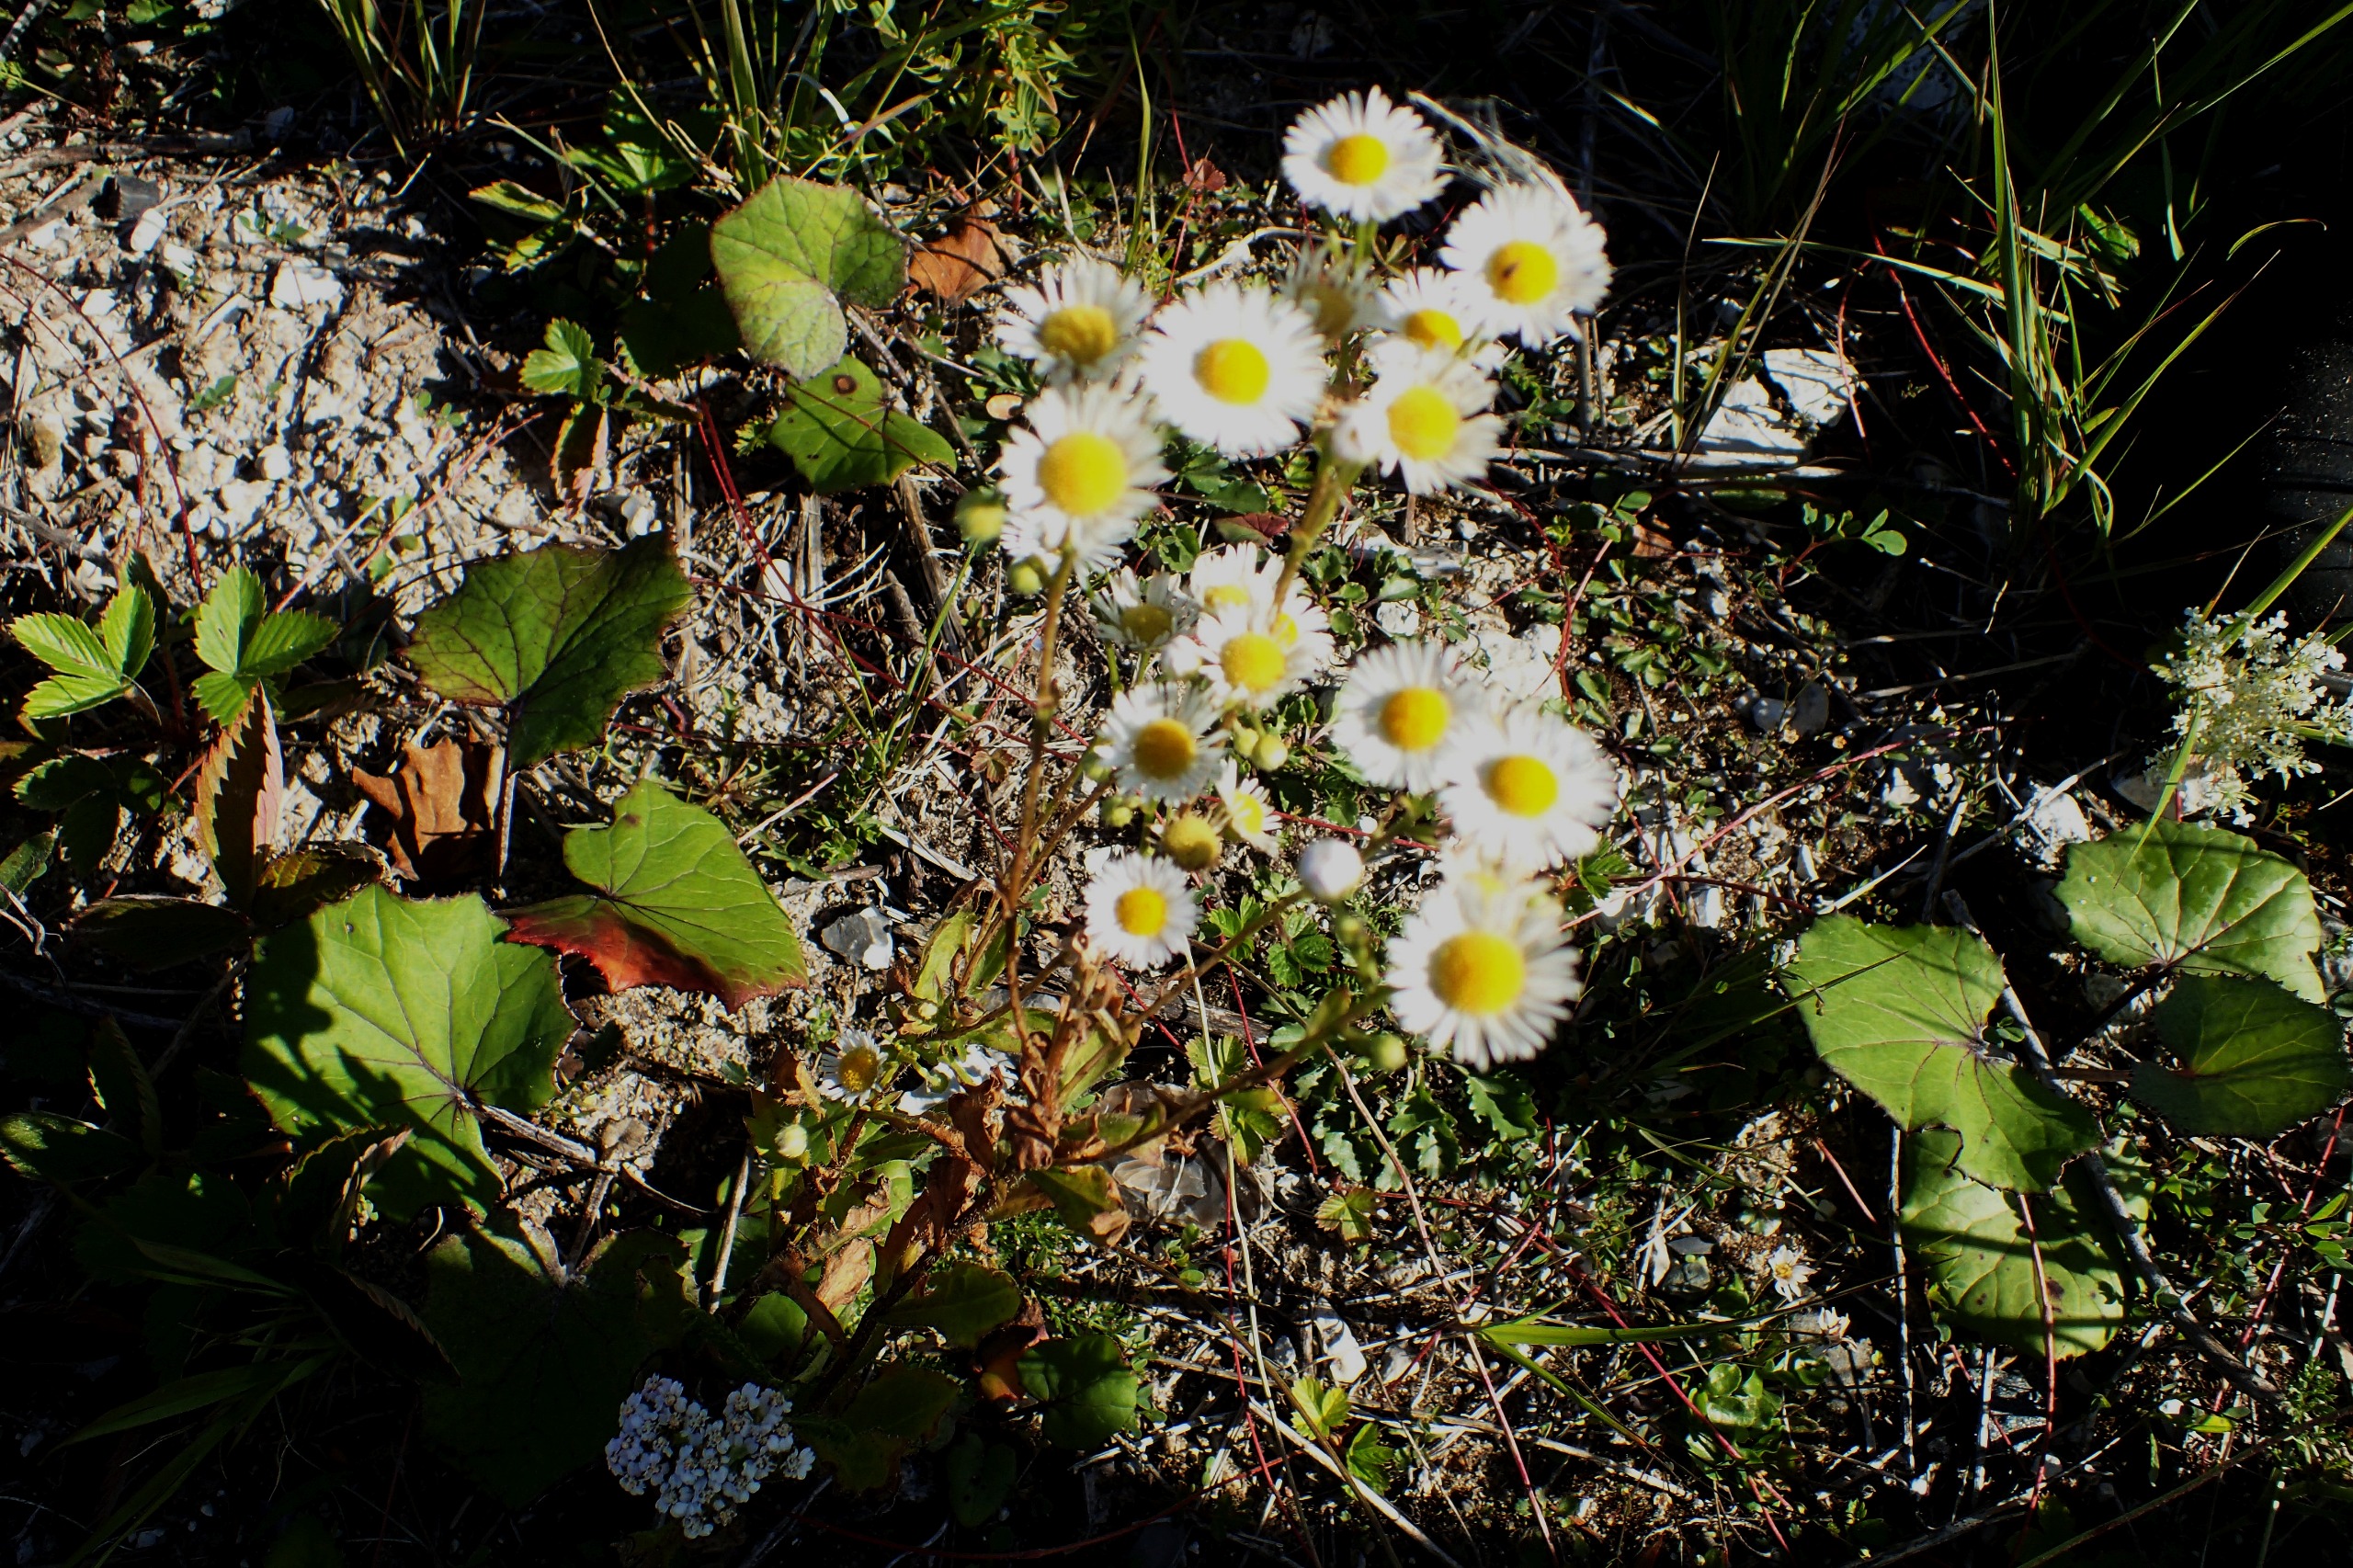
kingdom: Plantae
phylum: Tracheophyta
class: Magnoliopsida
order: Asterales
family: Asteraceae
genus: Erigeron
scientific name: Erigeron annuus
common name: Smalstråle
